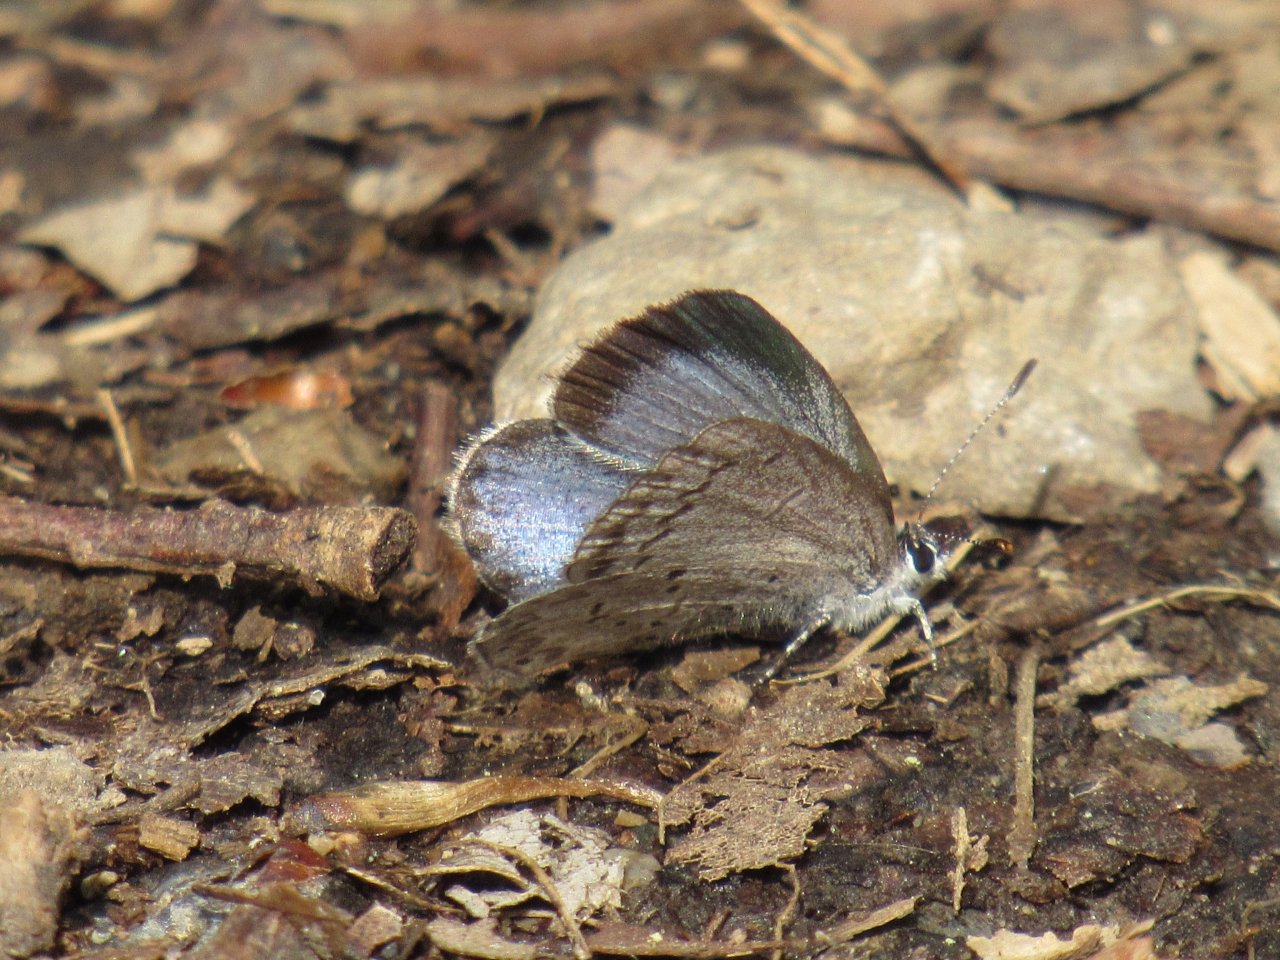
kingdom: Animalia
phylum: Arthropoda
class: Insecta
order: Lepidoptera
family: Lycaenidae
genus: Celastrina
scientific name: Celastrina ladon
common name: Spring Azure
